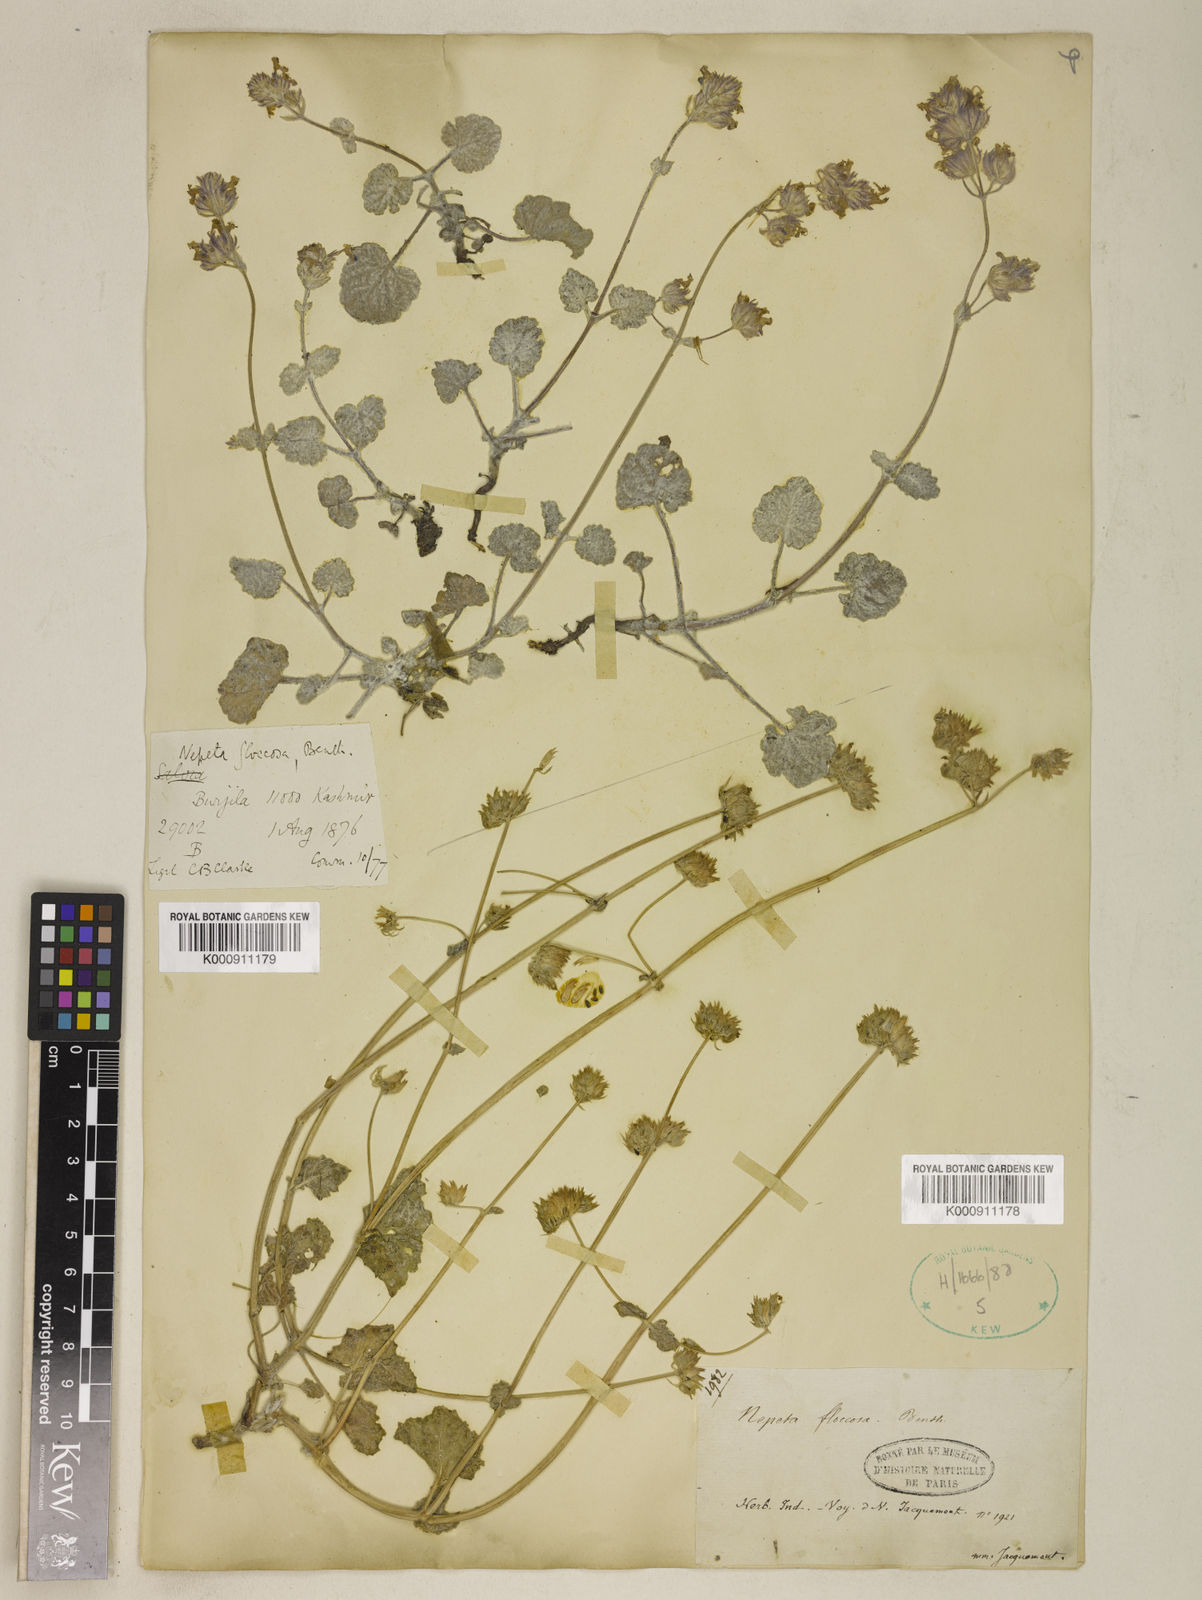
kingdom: Plantae
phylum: Tracheophyta
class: Magnoliopsida
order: Lamiales
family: Lamiaceae
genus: Nepeta
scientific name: Nepeta floccosa
